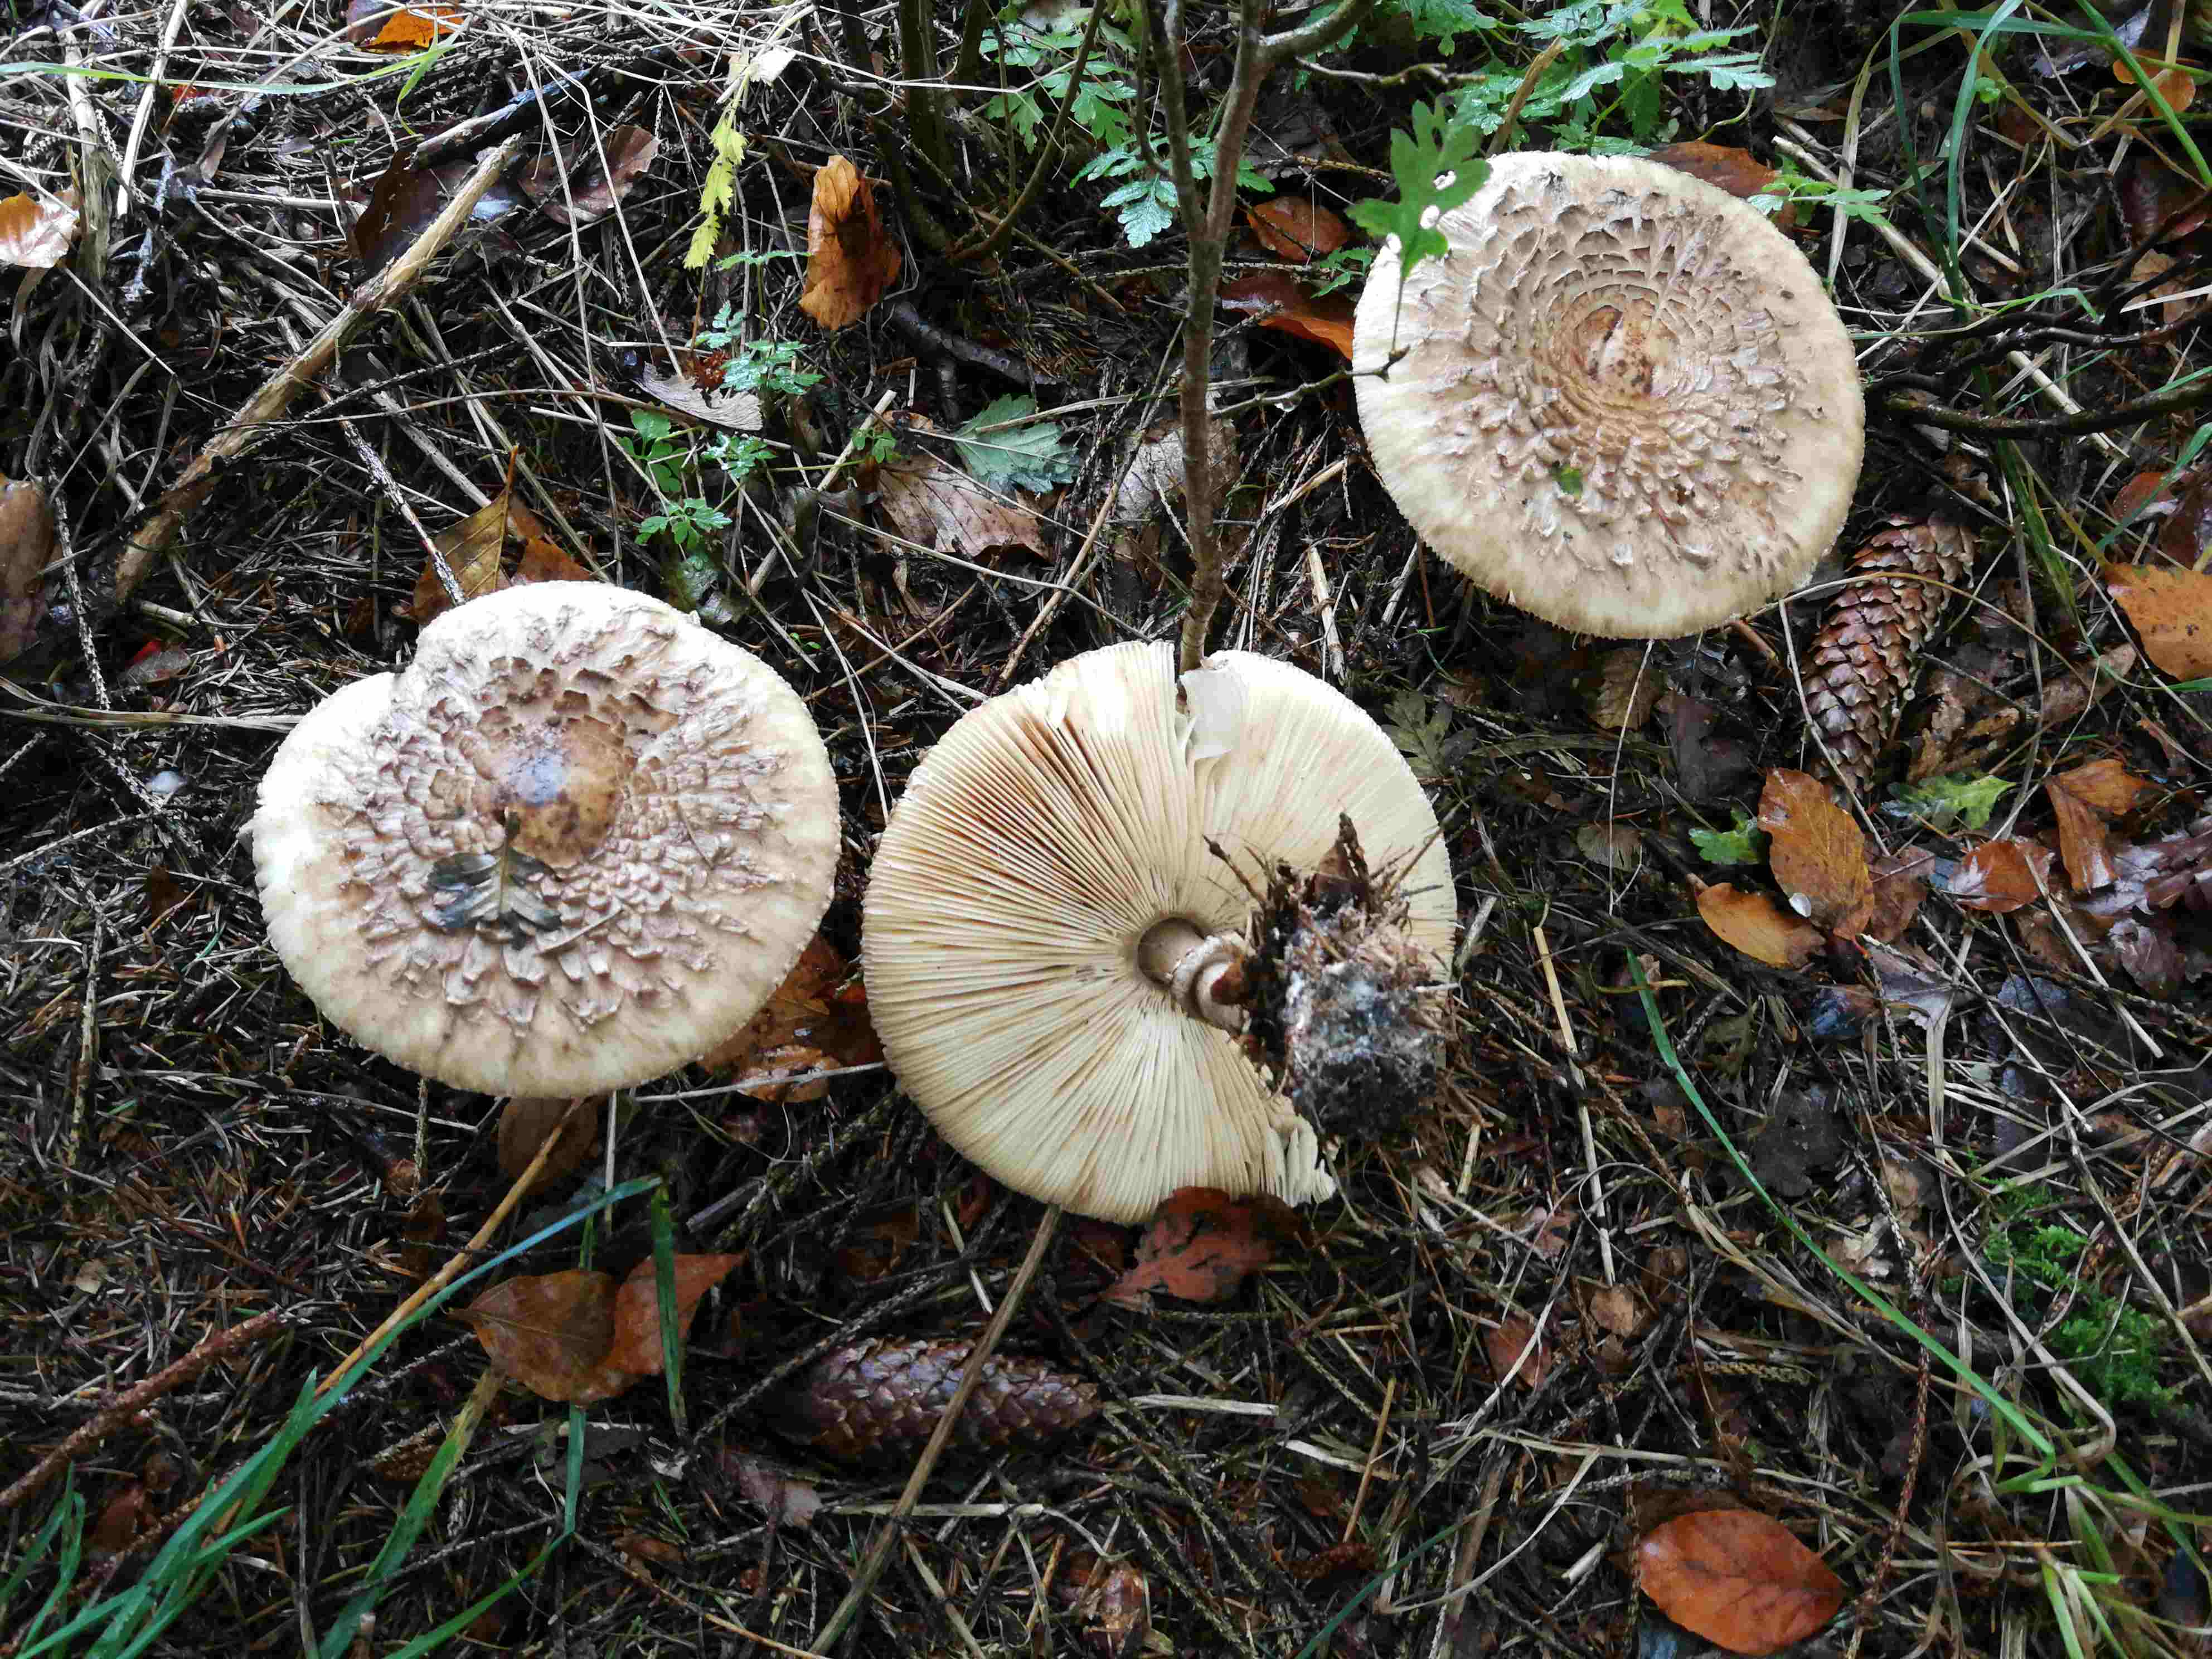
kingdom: Fungi
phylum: Basidiomycota
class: Agaricomycetes
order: Agaricales
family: Agaricaceae
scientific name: Agaricaceae
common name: champignonfamilien
